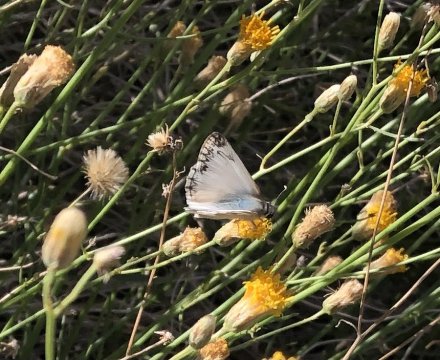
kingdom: Animalia
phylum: Arthropoda
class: Insecta
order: Lepidoptera
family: Hesperiidae
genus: Heliopetes
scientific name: Heliopetes ericetorum
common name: Northern White-Skipper
